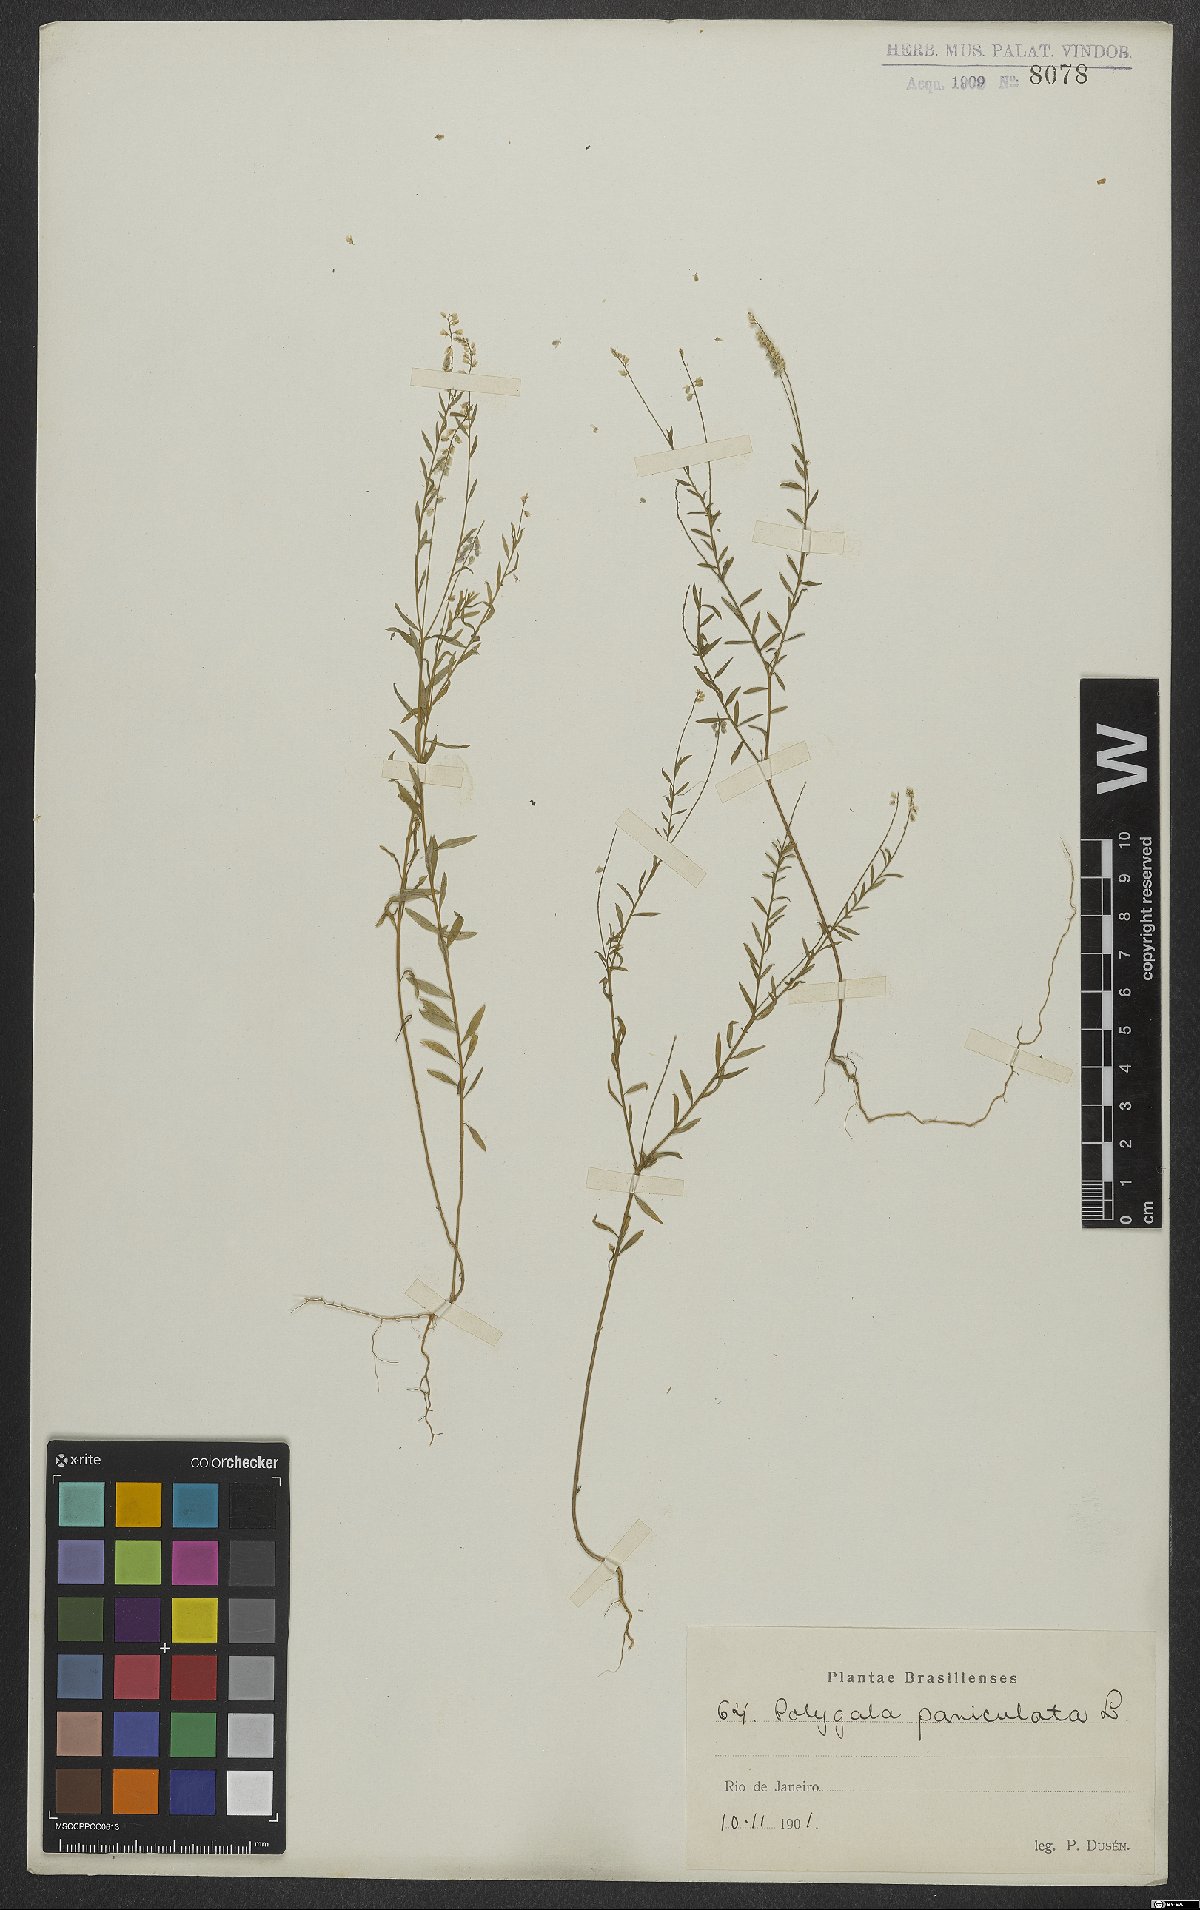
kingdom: Plantae
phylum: Tracheophyta
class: Magnoliopsida
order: Fabales
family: Polygalaceae
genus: Polygala
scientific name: Polygala exilis
